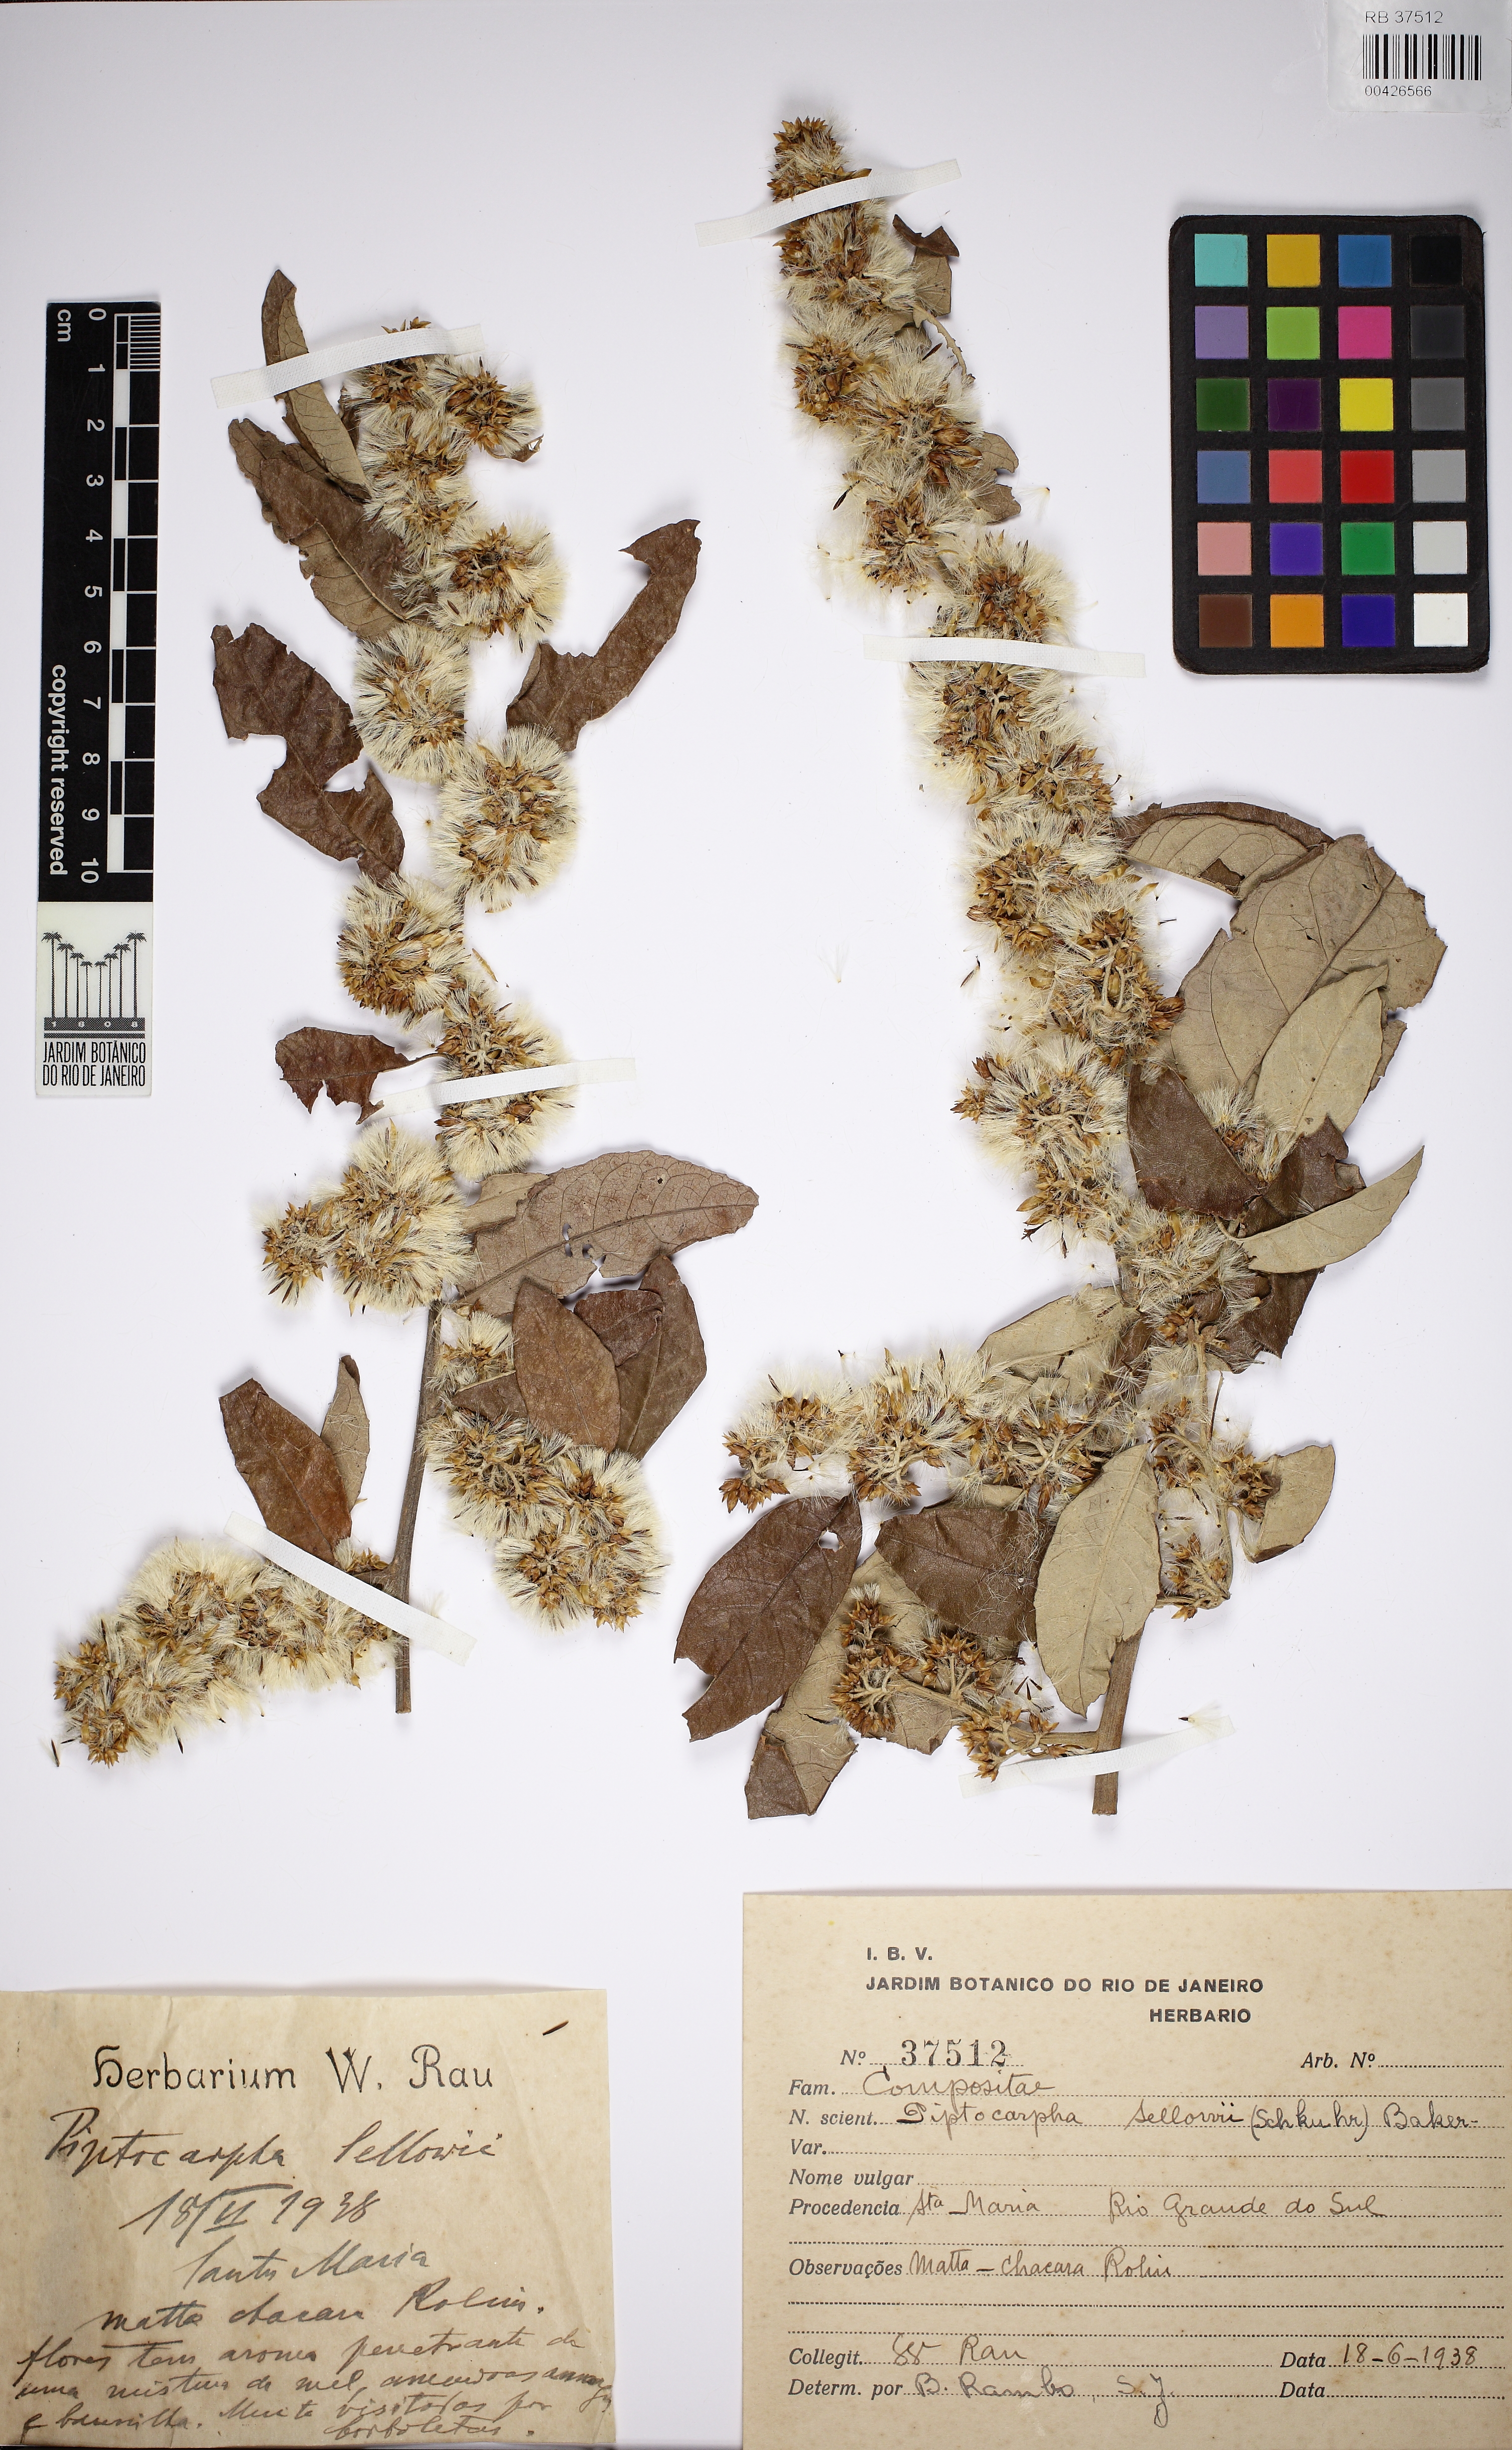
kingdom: Plantae
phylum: Tracheophyta
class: Magnoliopsida
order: Asterales
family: Asteraceae
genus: Piptocarpha
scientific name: Piptocarpha ramboi
